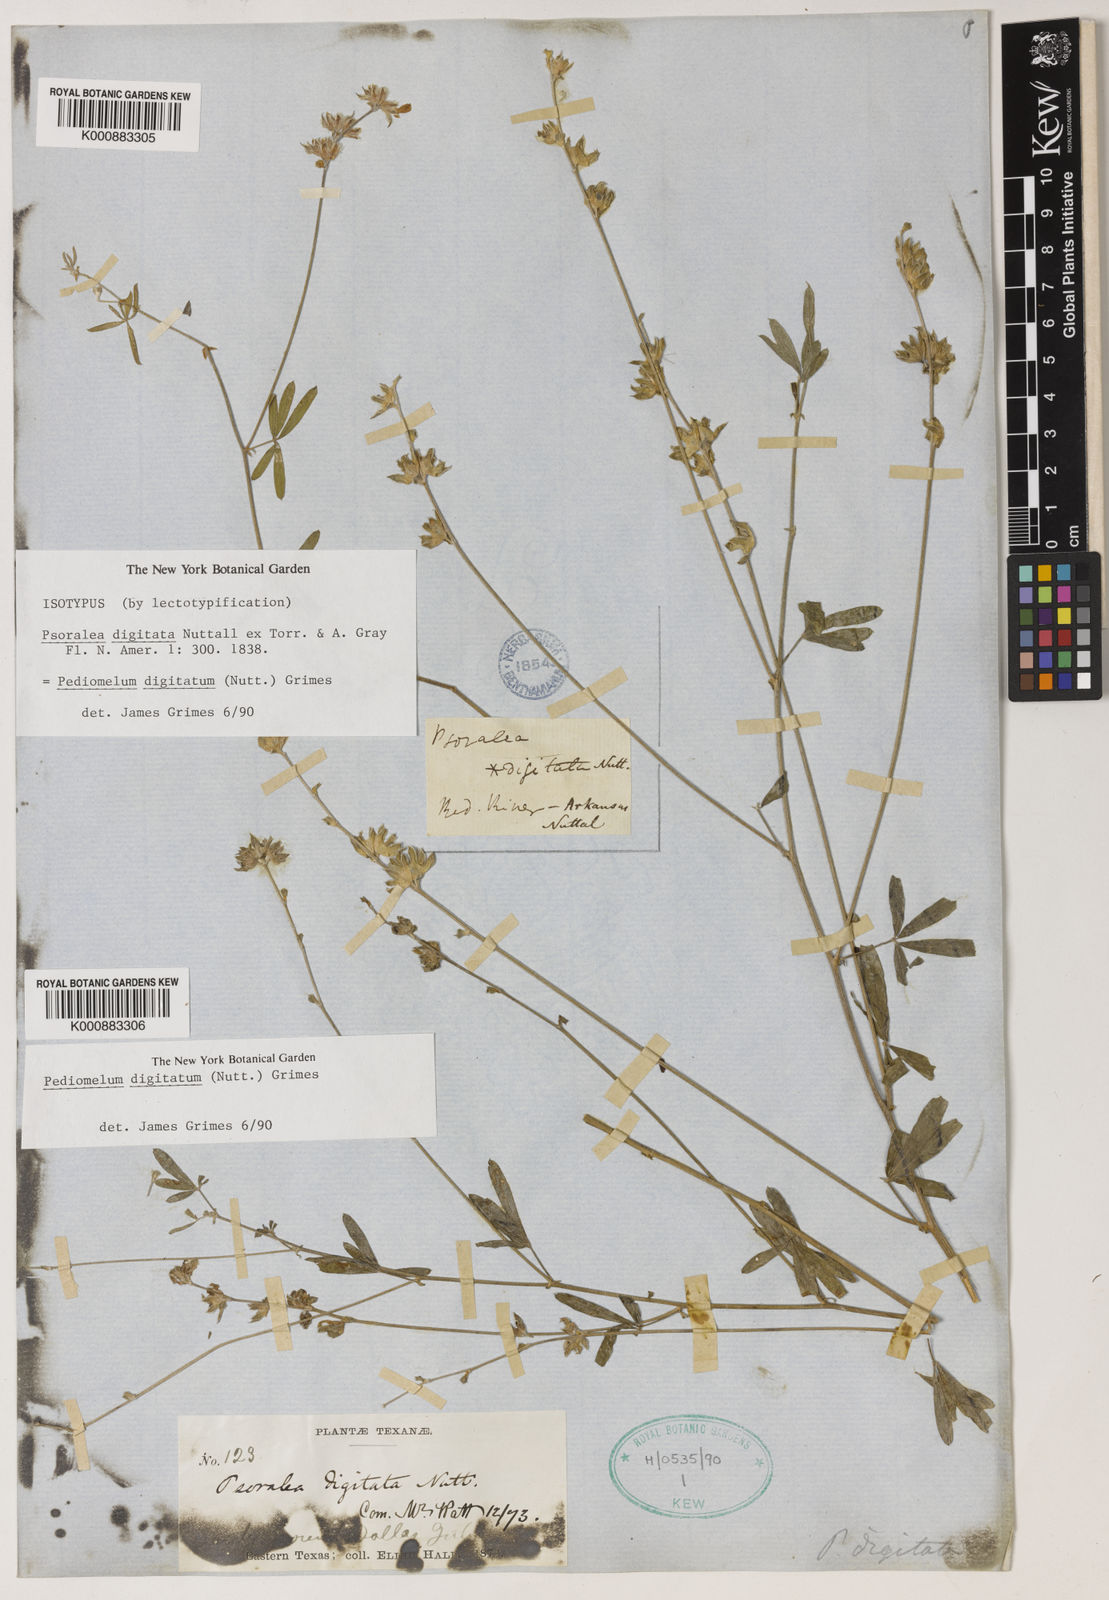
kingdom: Plantae
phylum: Tracheophyta
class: Magnoliopsida
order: Fabales
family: Fabaceae
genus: Pediomelum
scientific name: Pediomelum
